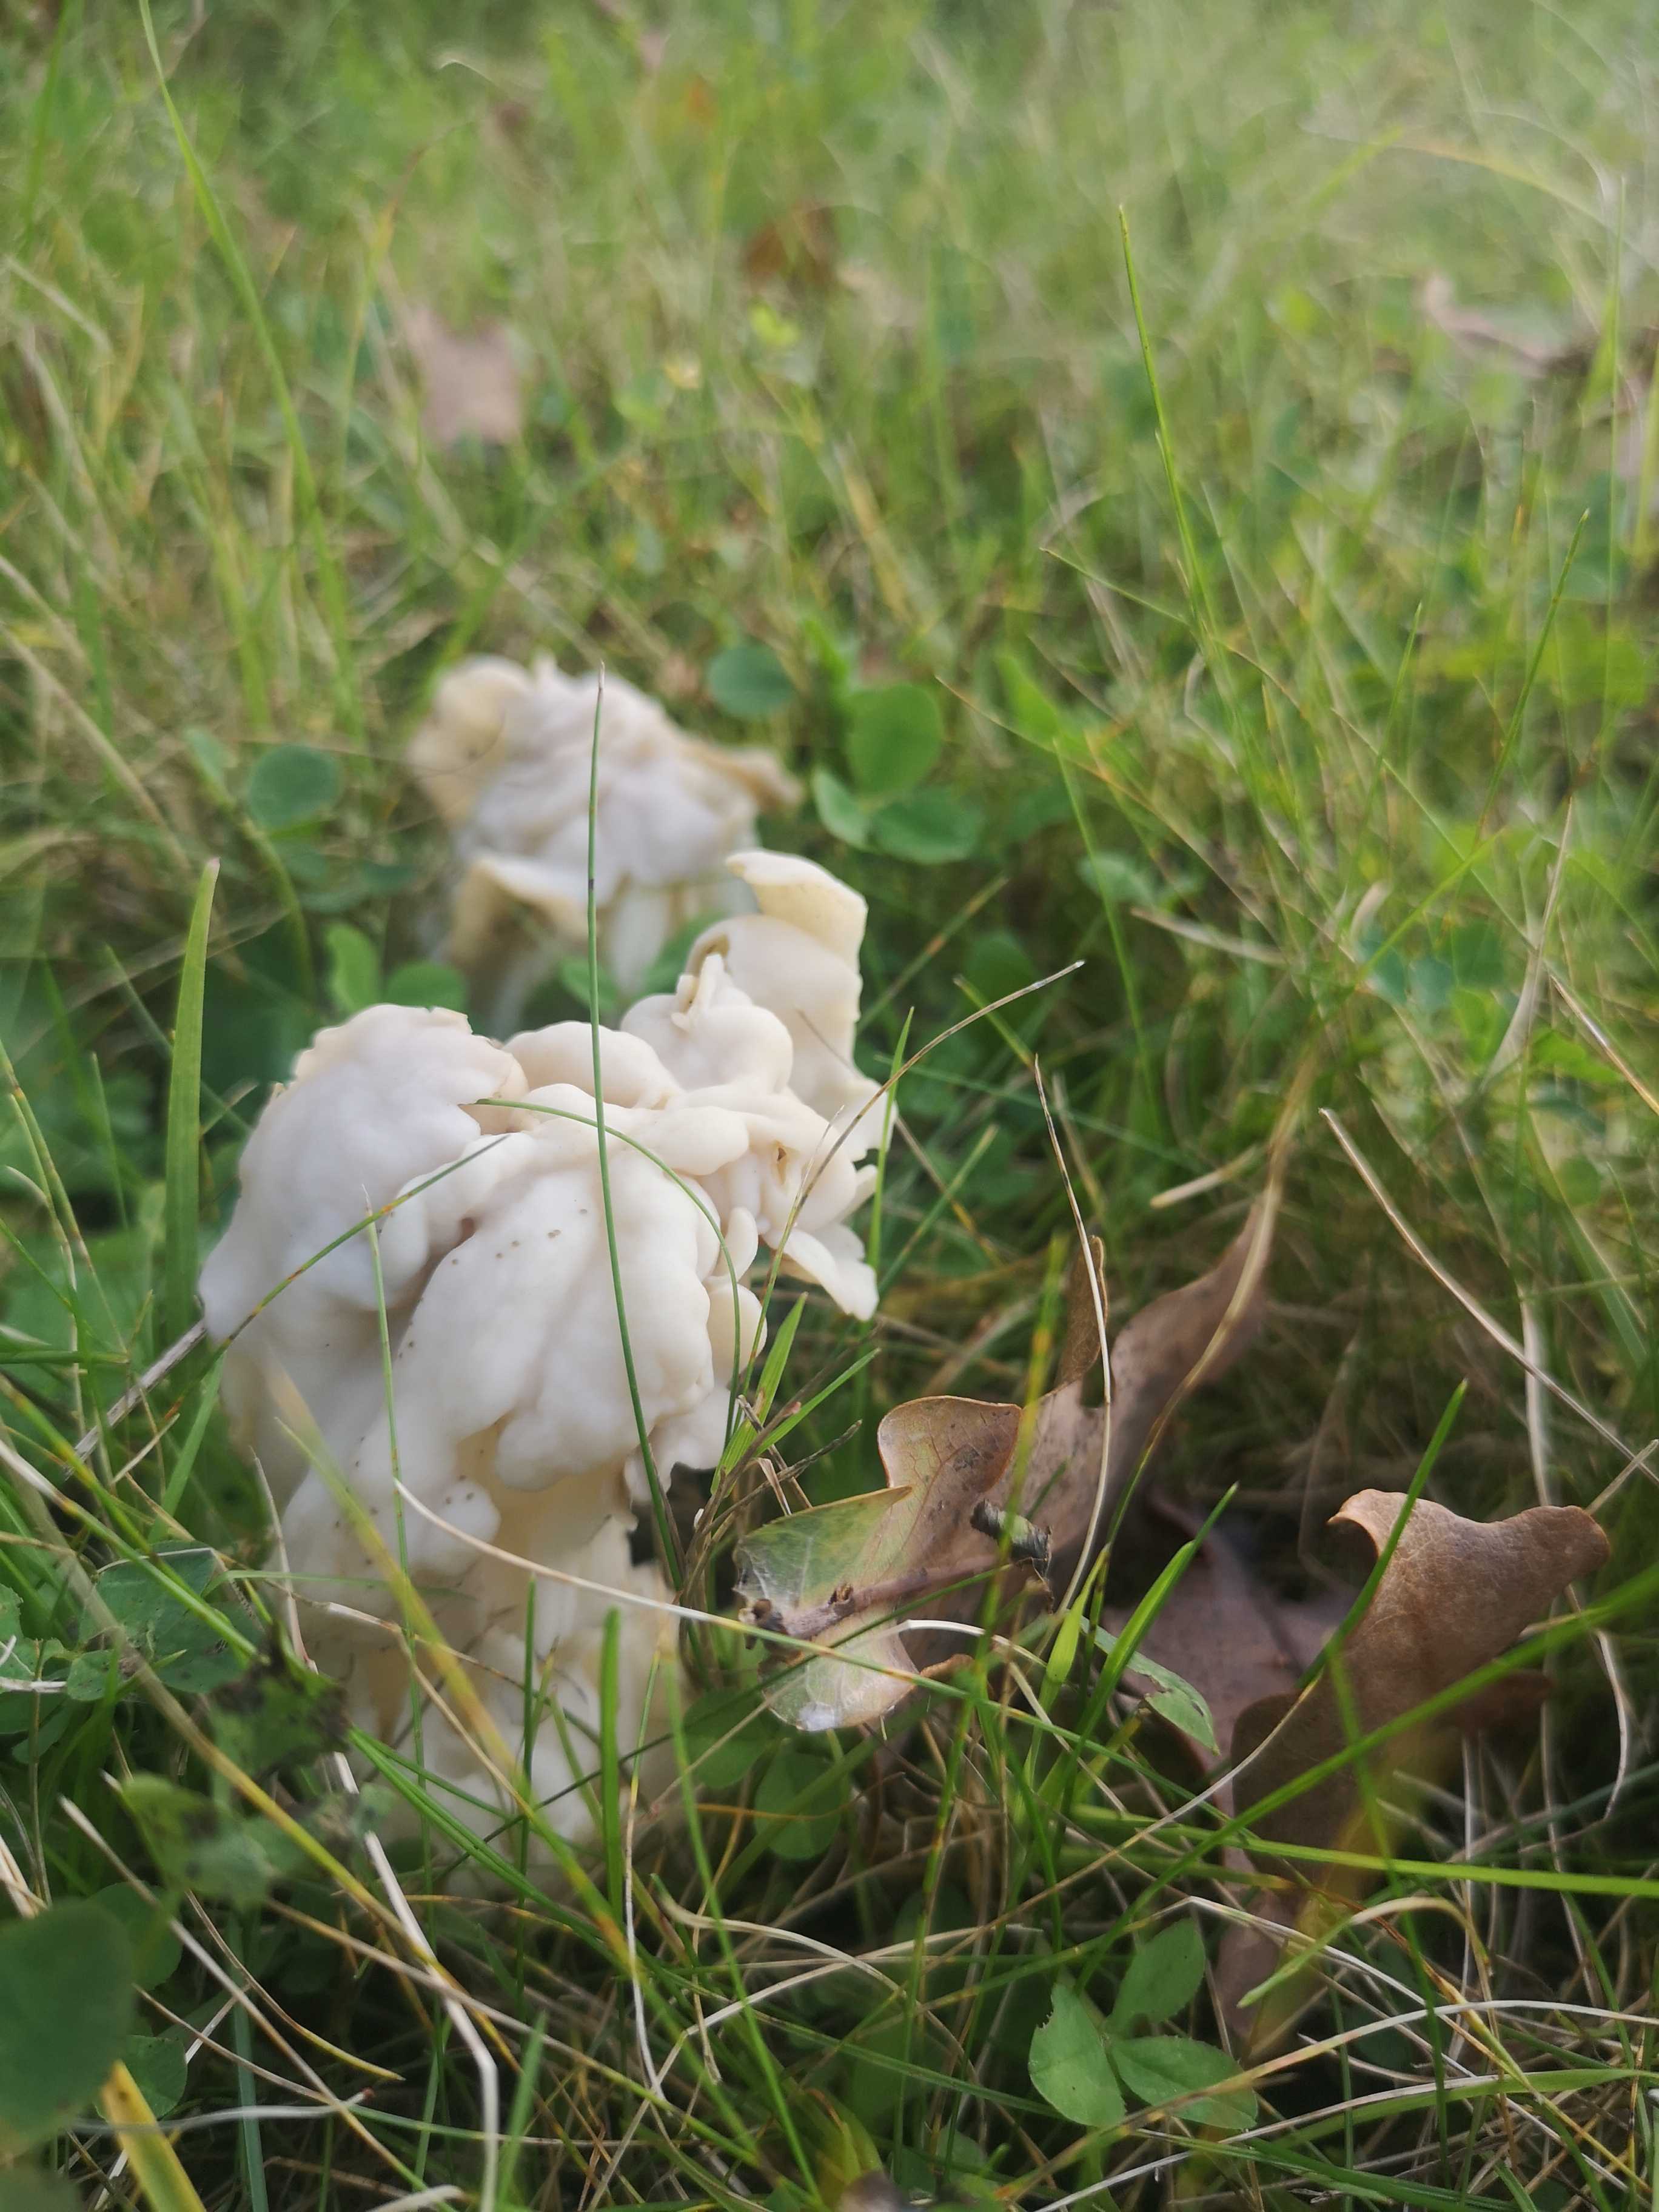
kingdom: Fungi
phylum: Ascomycota
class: Pezizomycetes
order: Pezizales
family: Helvellaceae
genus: Helvella
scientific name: Helvella crispa
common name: kruset foldhat
